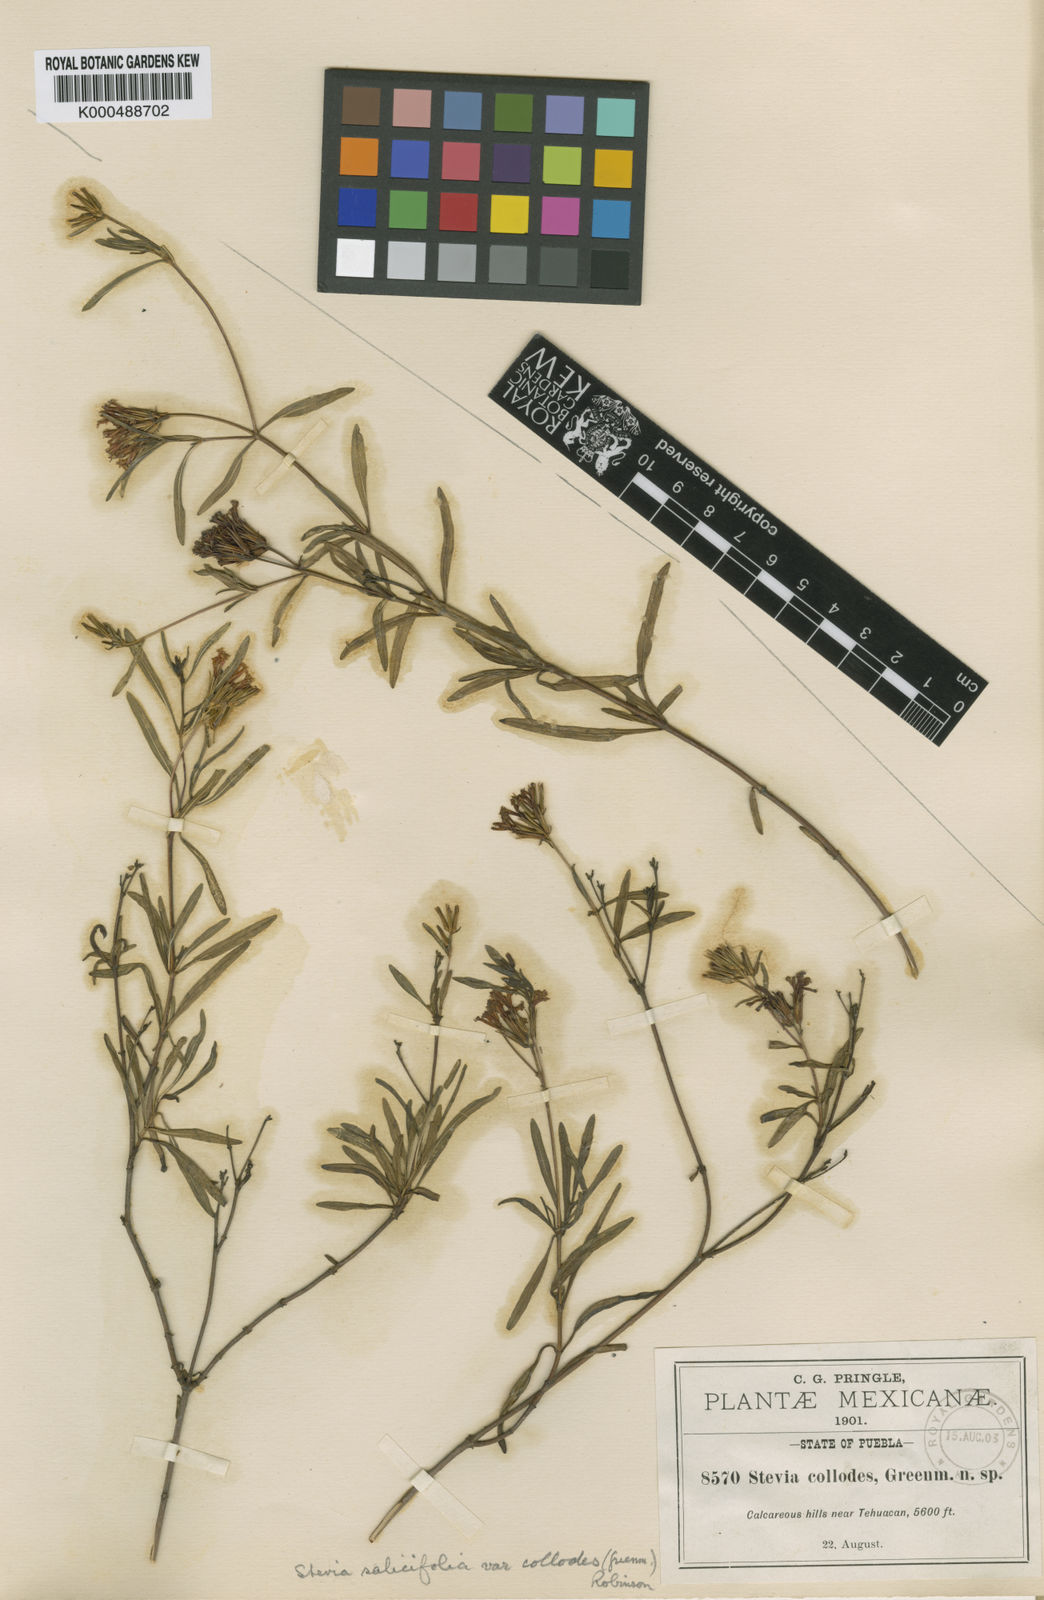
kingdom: Plantae
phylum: Tracheophyta
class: Magnoliopsida
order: Asterales
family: Asteraceae
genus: Stevia
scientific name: Stevia salicifolia
